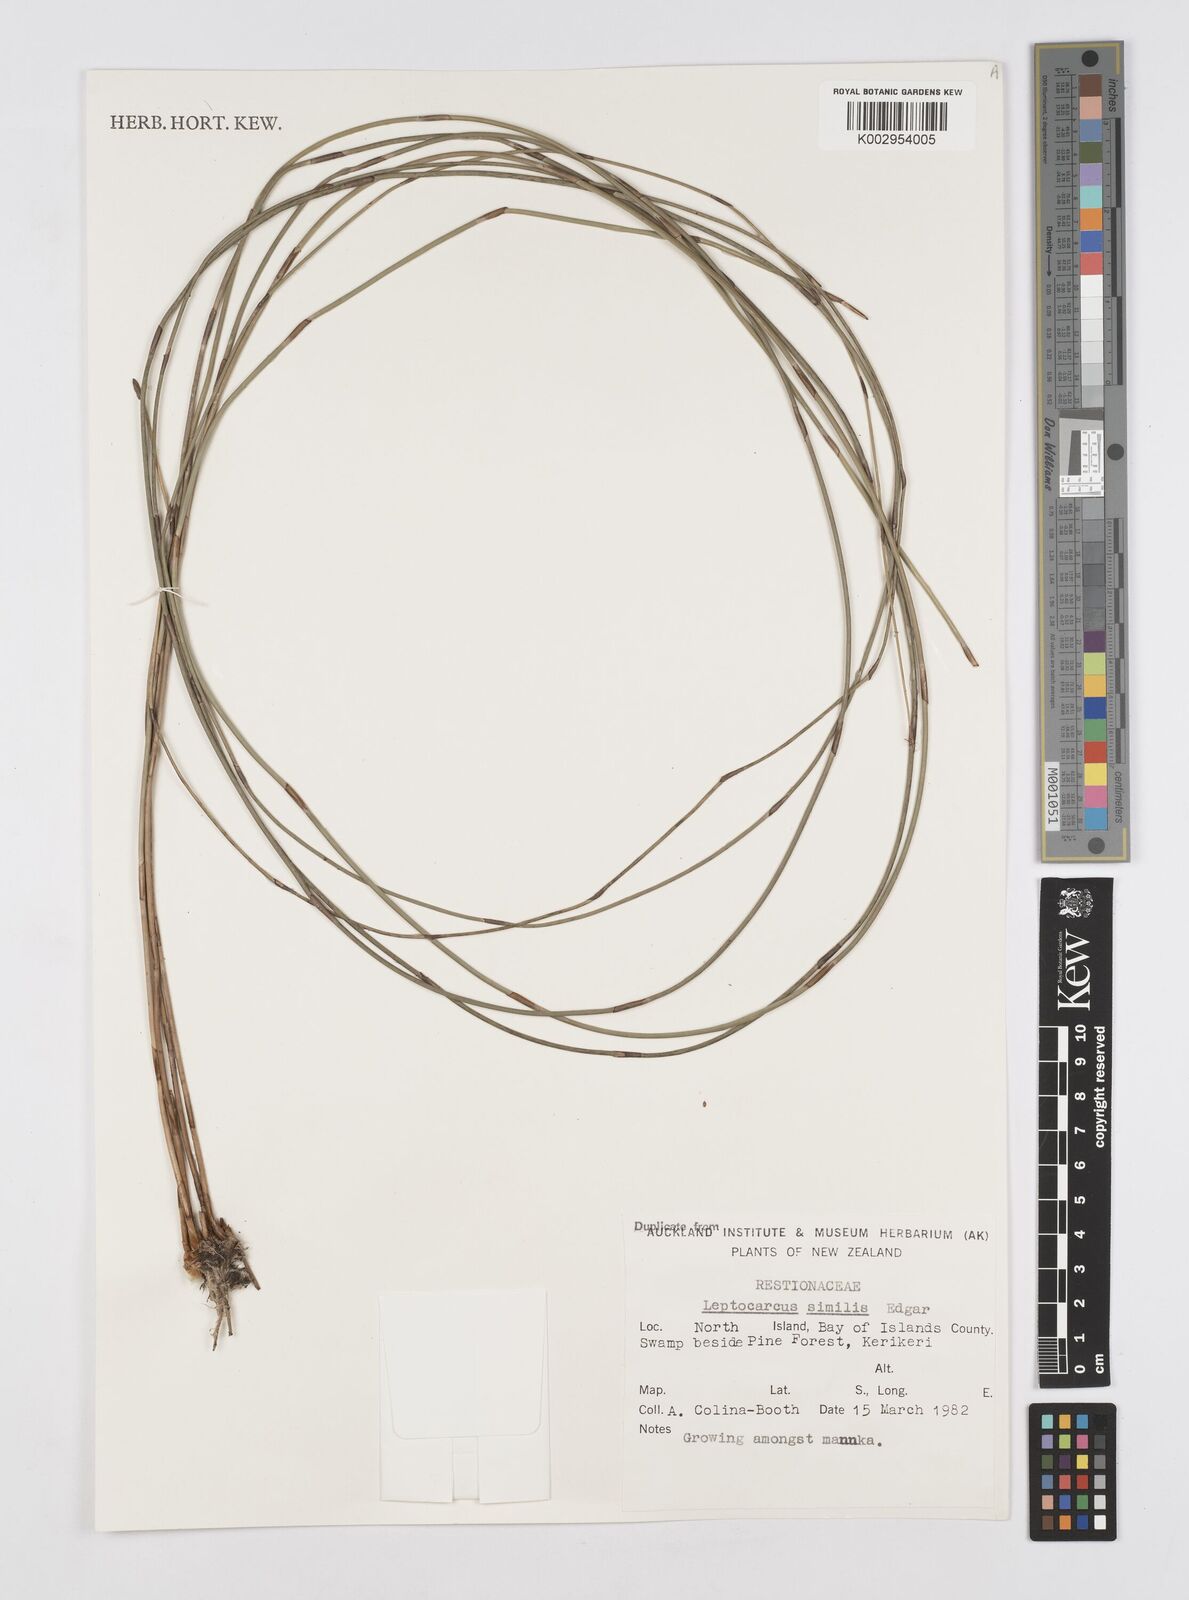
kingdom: Plantae
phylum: Tracheophyta
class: Liliopsida
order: Poales
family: Restionaceae
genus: Apodasmia
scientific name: Apodasmia similis
